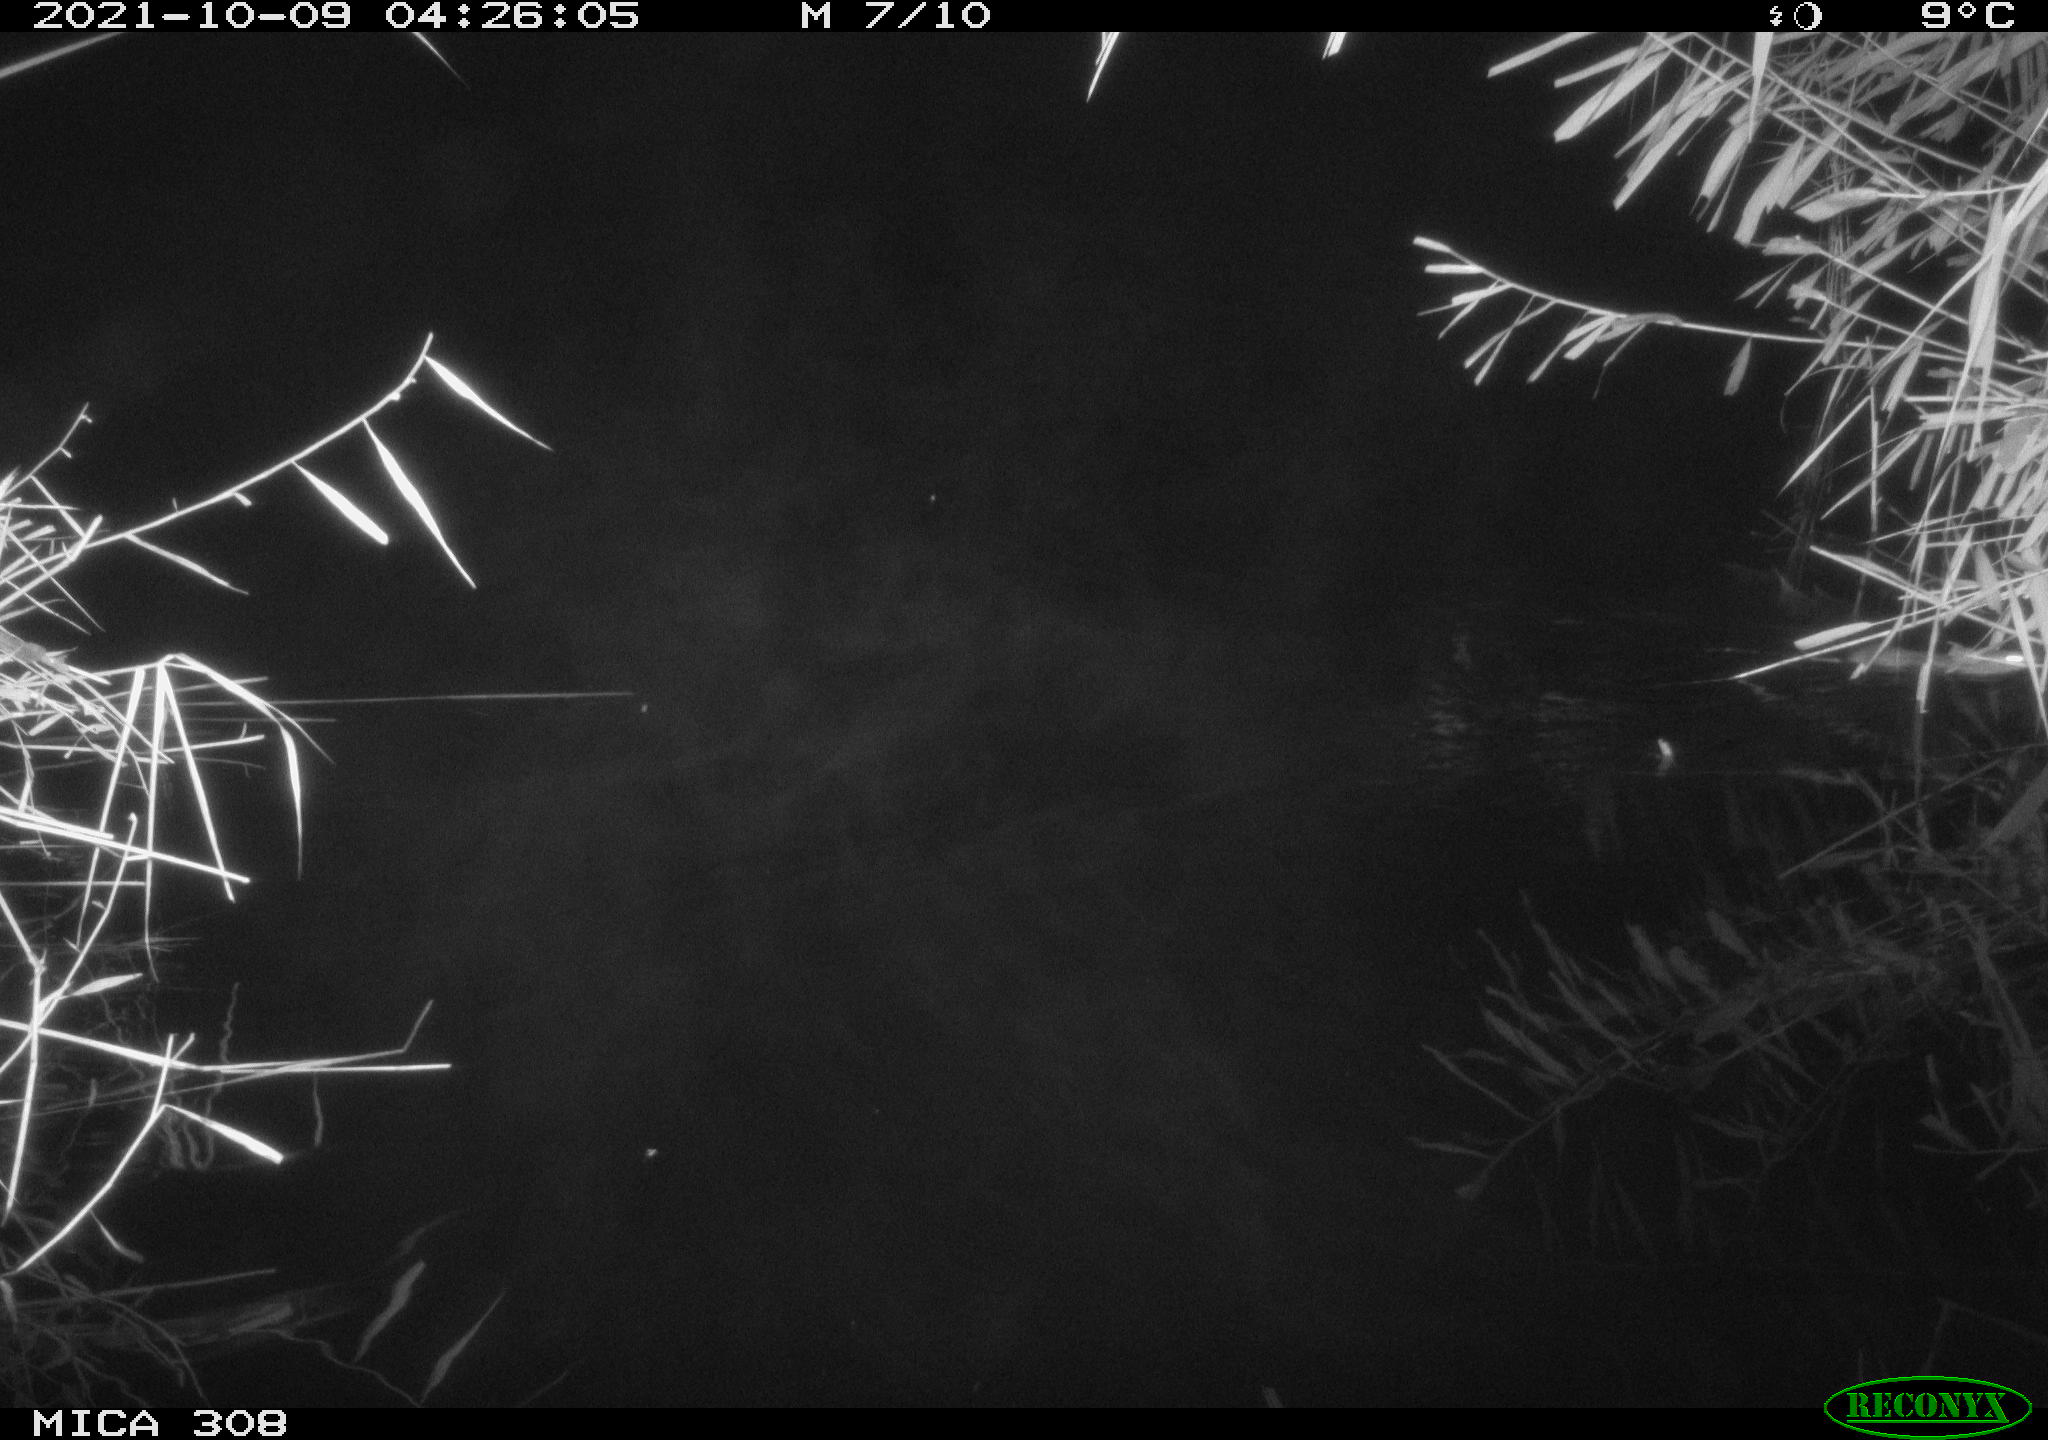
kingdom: Animalia
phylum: Chordata
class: Mammalia
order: Rodentia
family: Muridae
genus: Rattus
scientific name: Rattus norvegicus
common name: Brown rat
